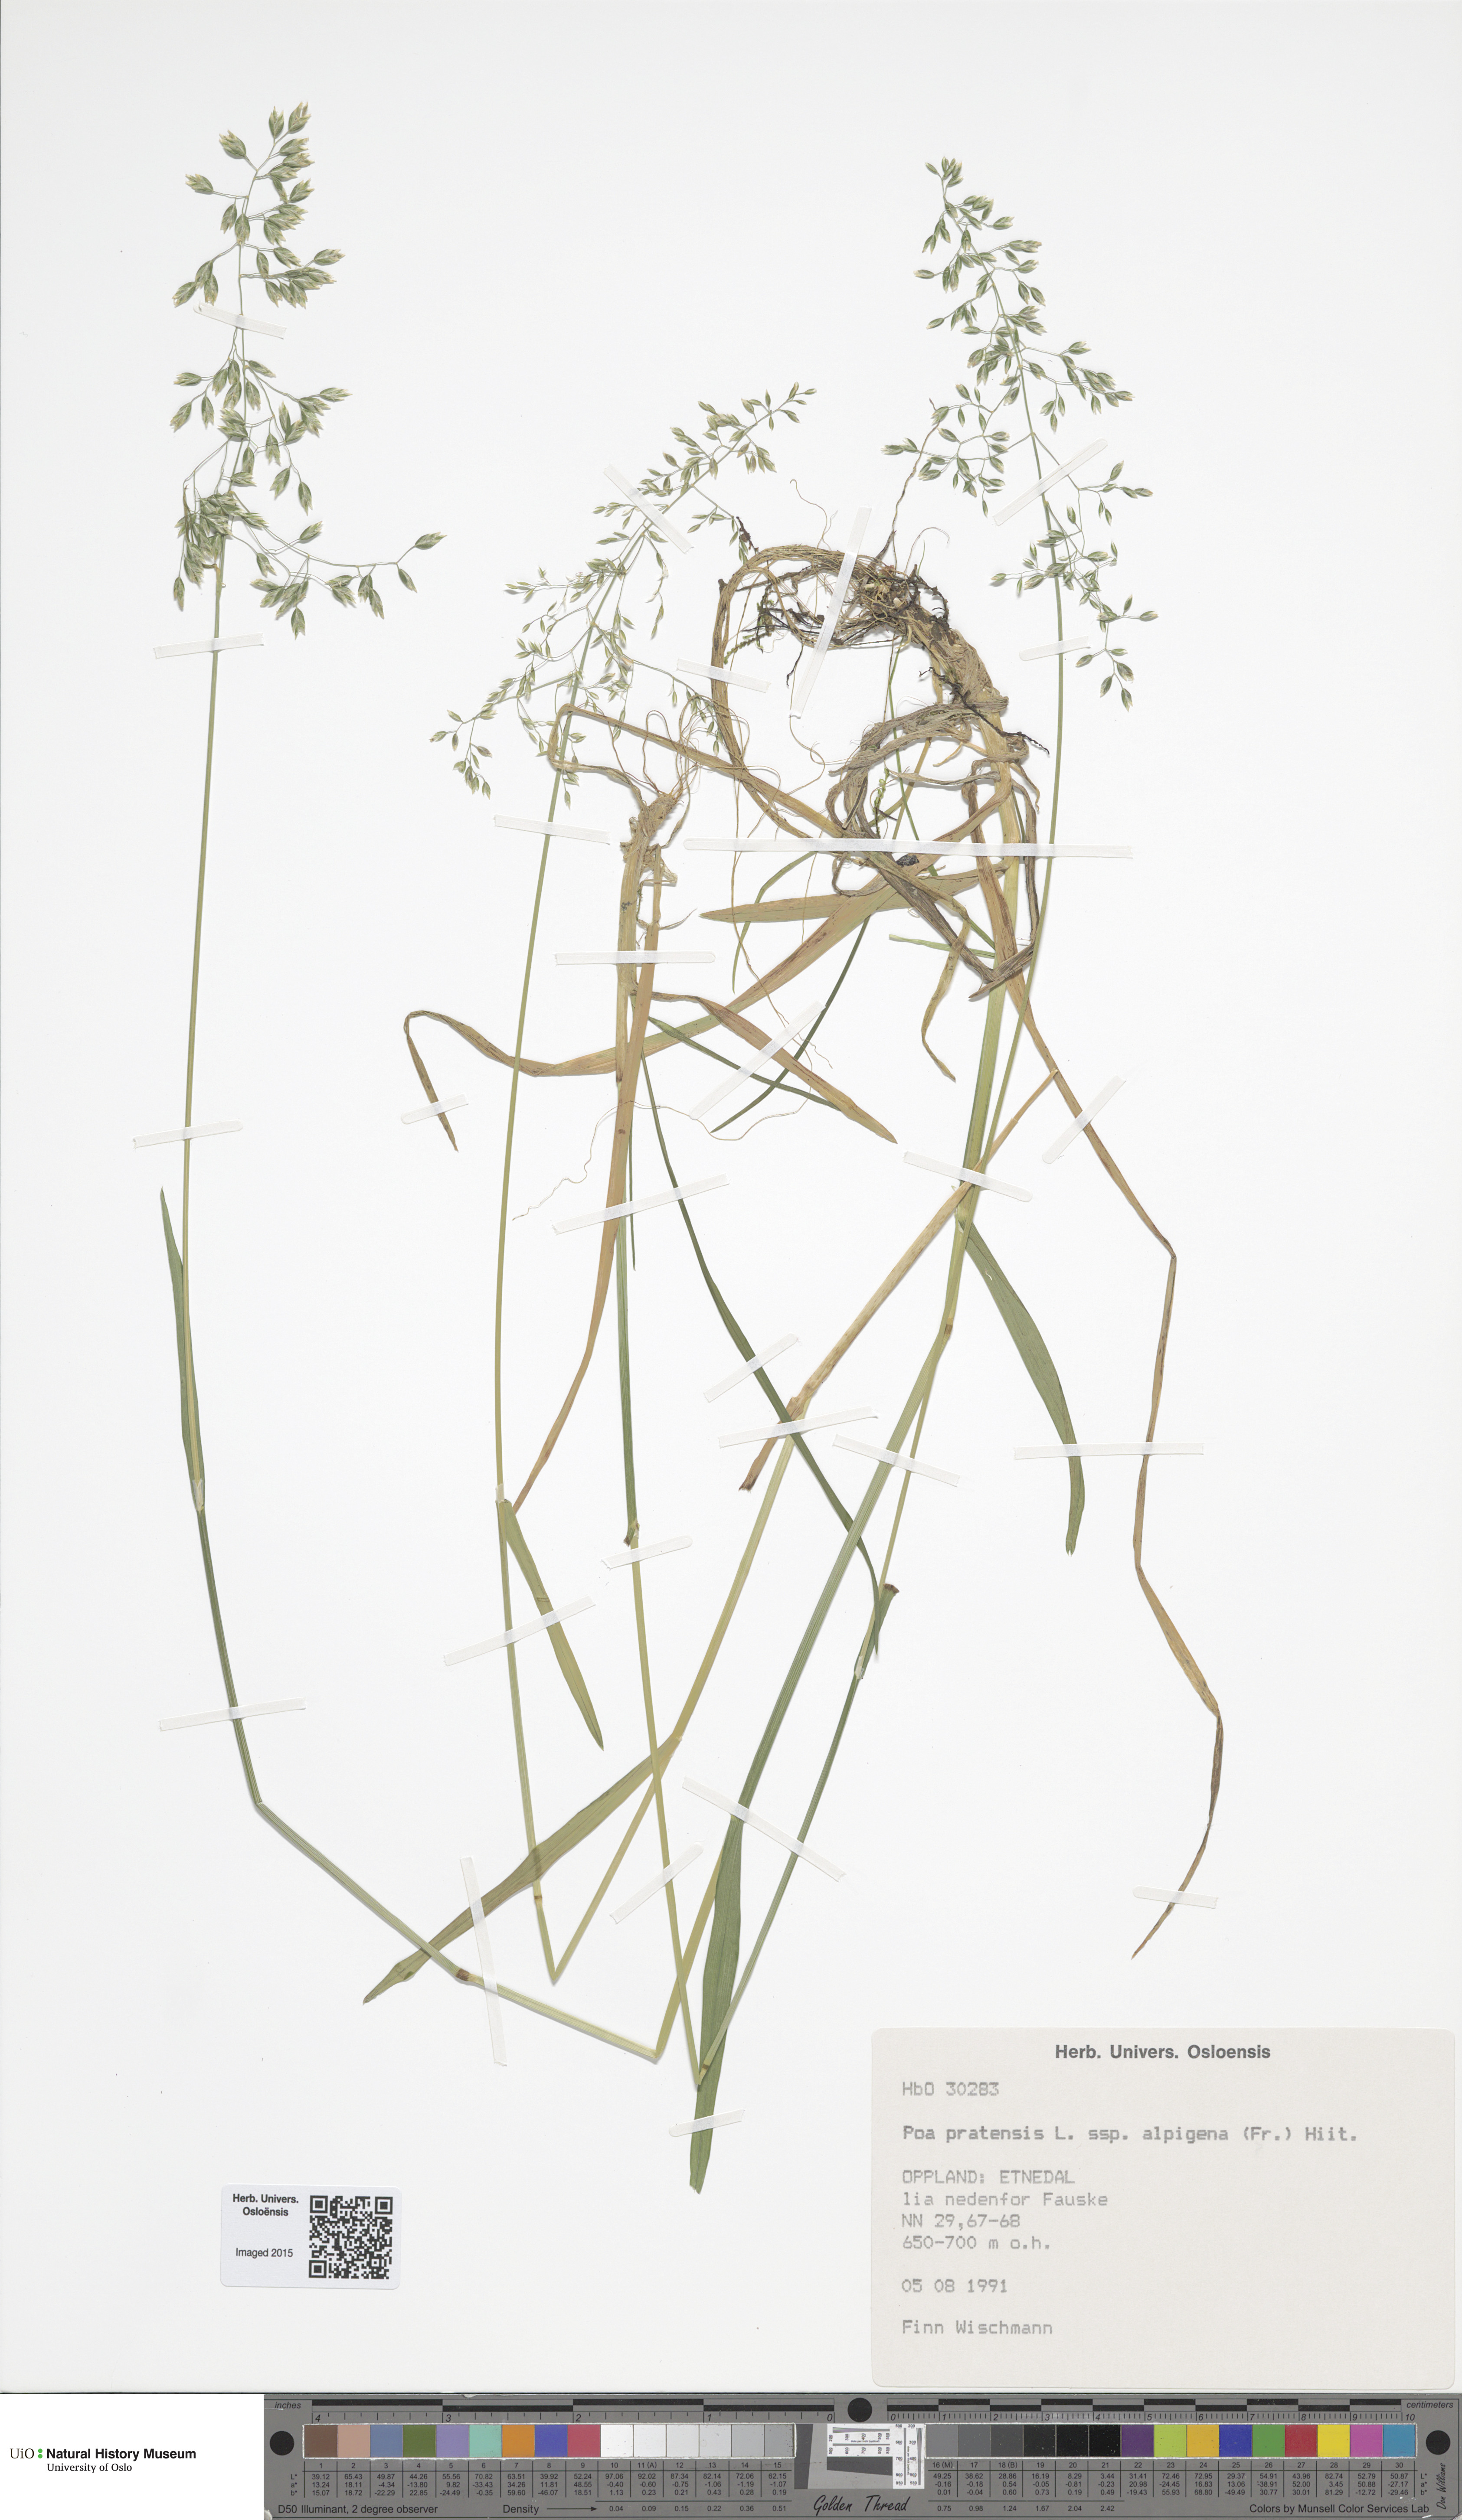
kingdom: Plantae
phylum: Tracheophyta
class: Liliopsida
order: Poales
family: Poaceae
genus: Poa
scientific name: Poa alpigena
